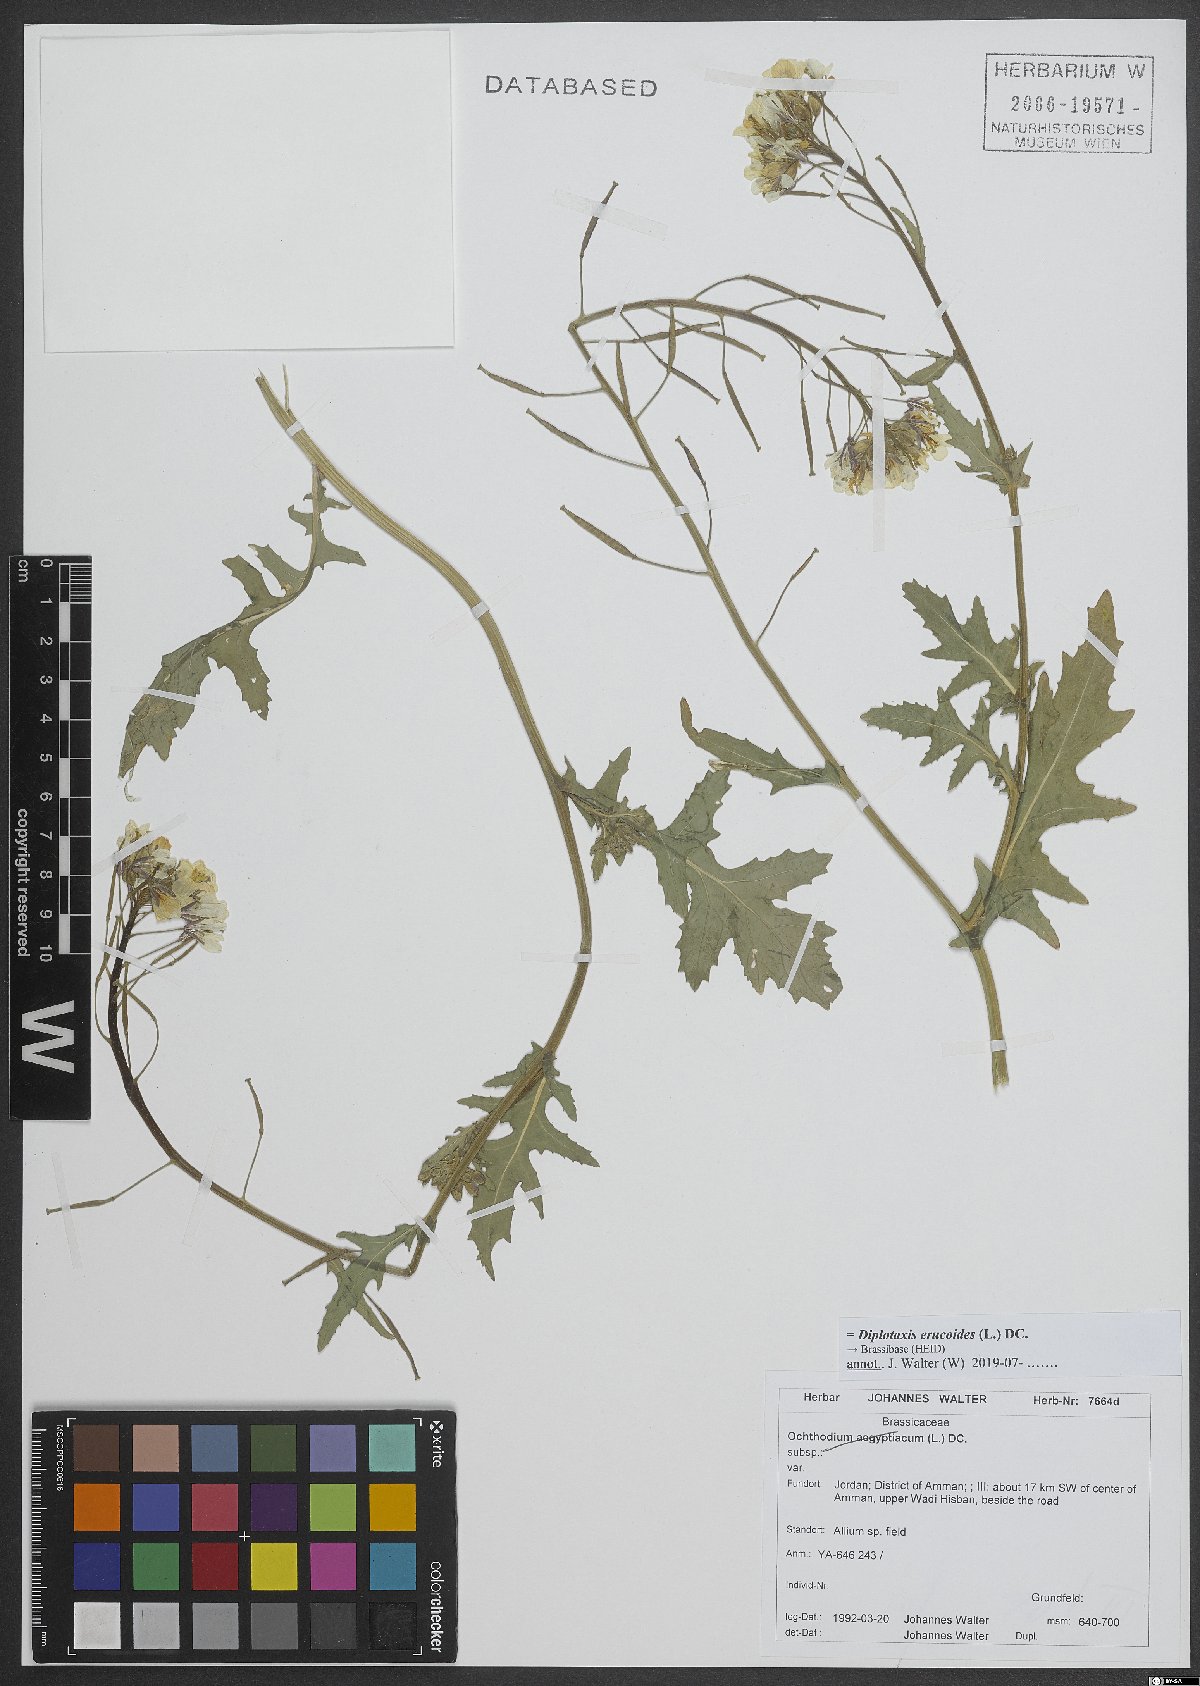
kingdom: Plantae
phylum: Tracheophyta
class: Magnoliopsida
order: Brassicales
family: Brassicaceae
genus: Diplotaxis
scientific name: Diplotaxis erucoides
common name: White rocket
